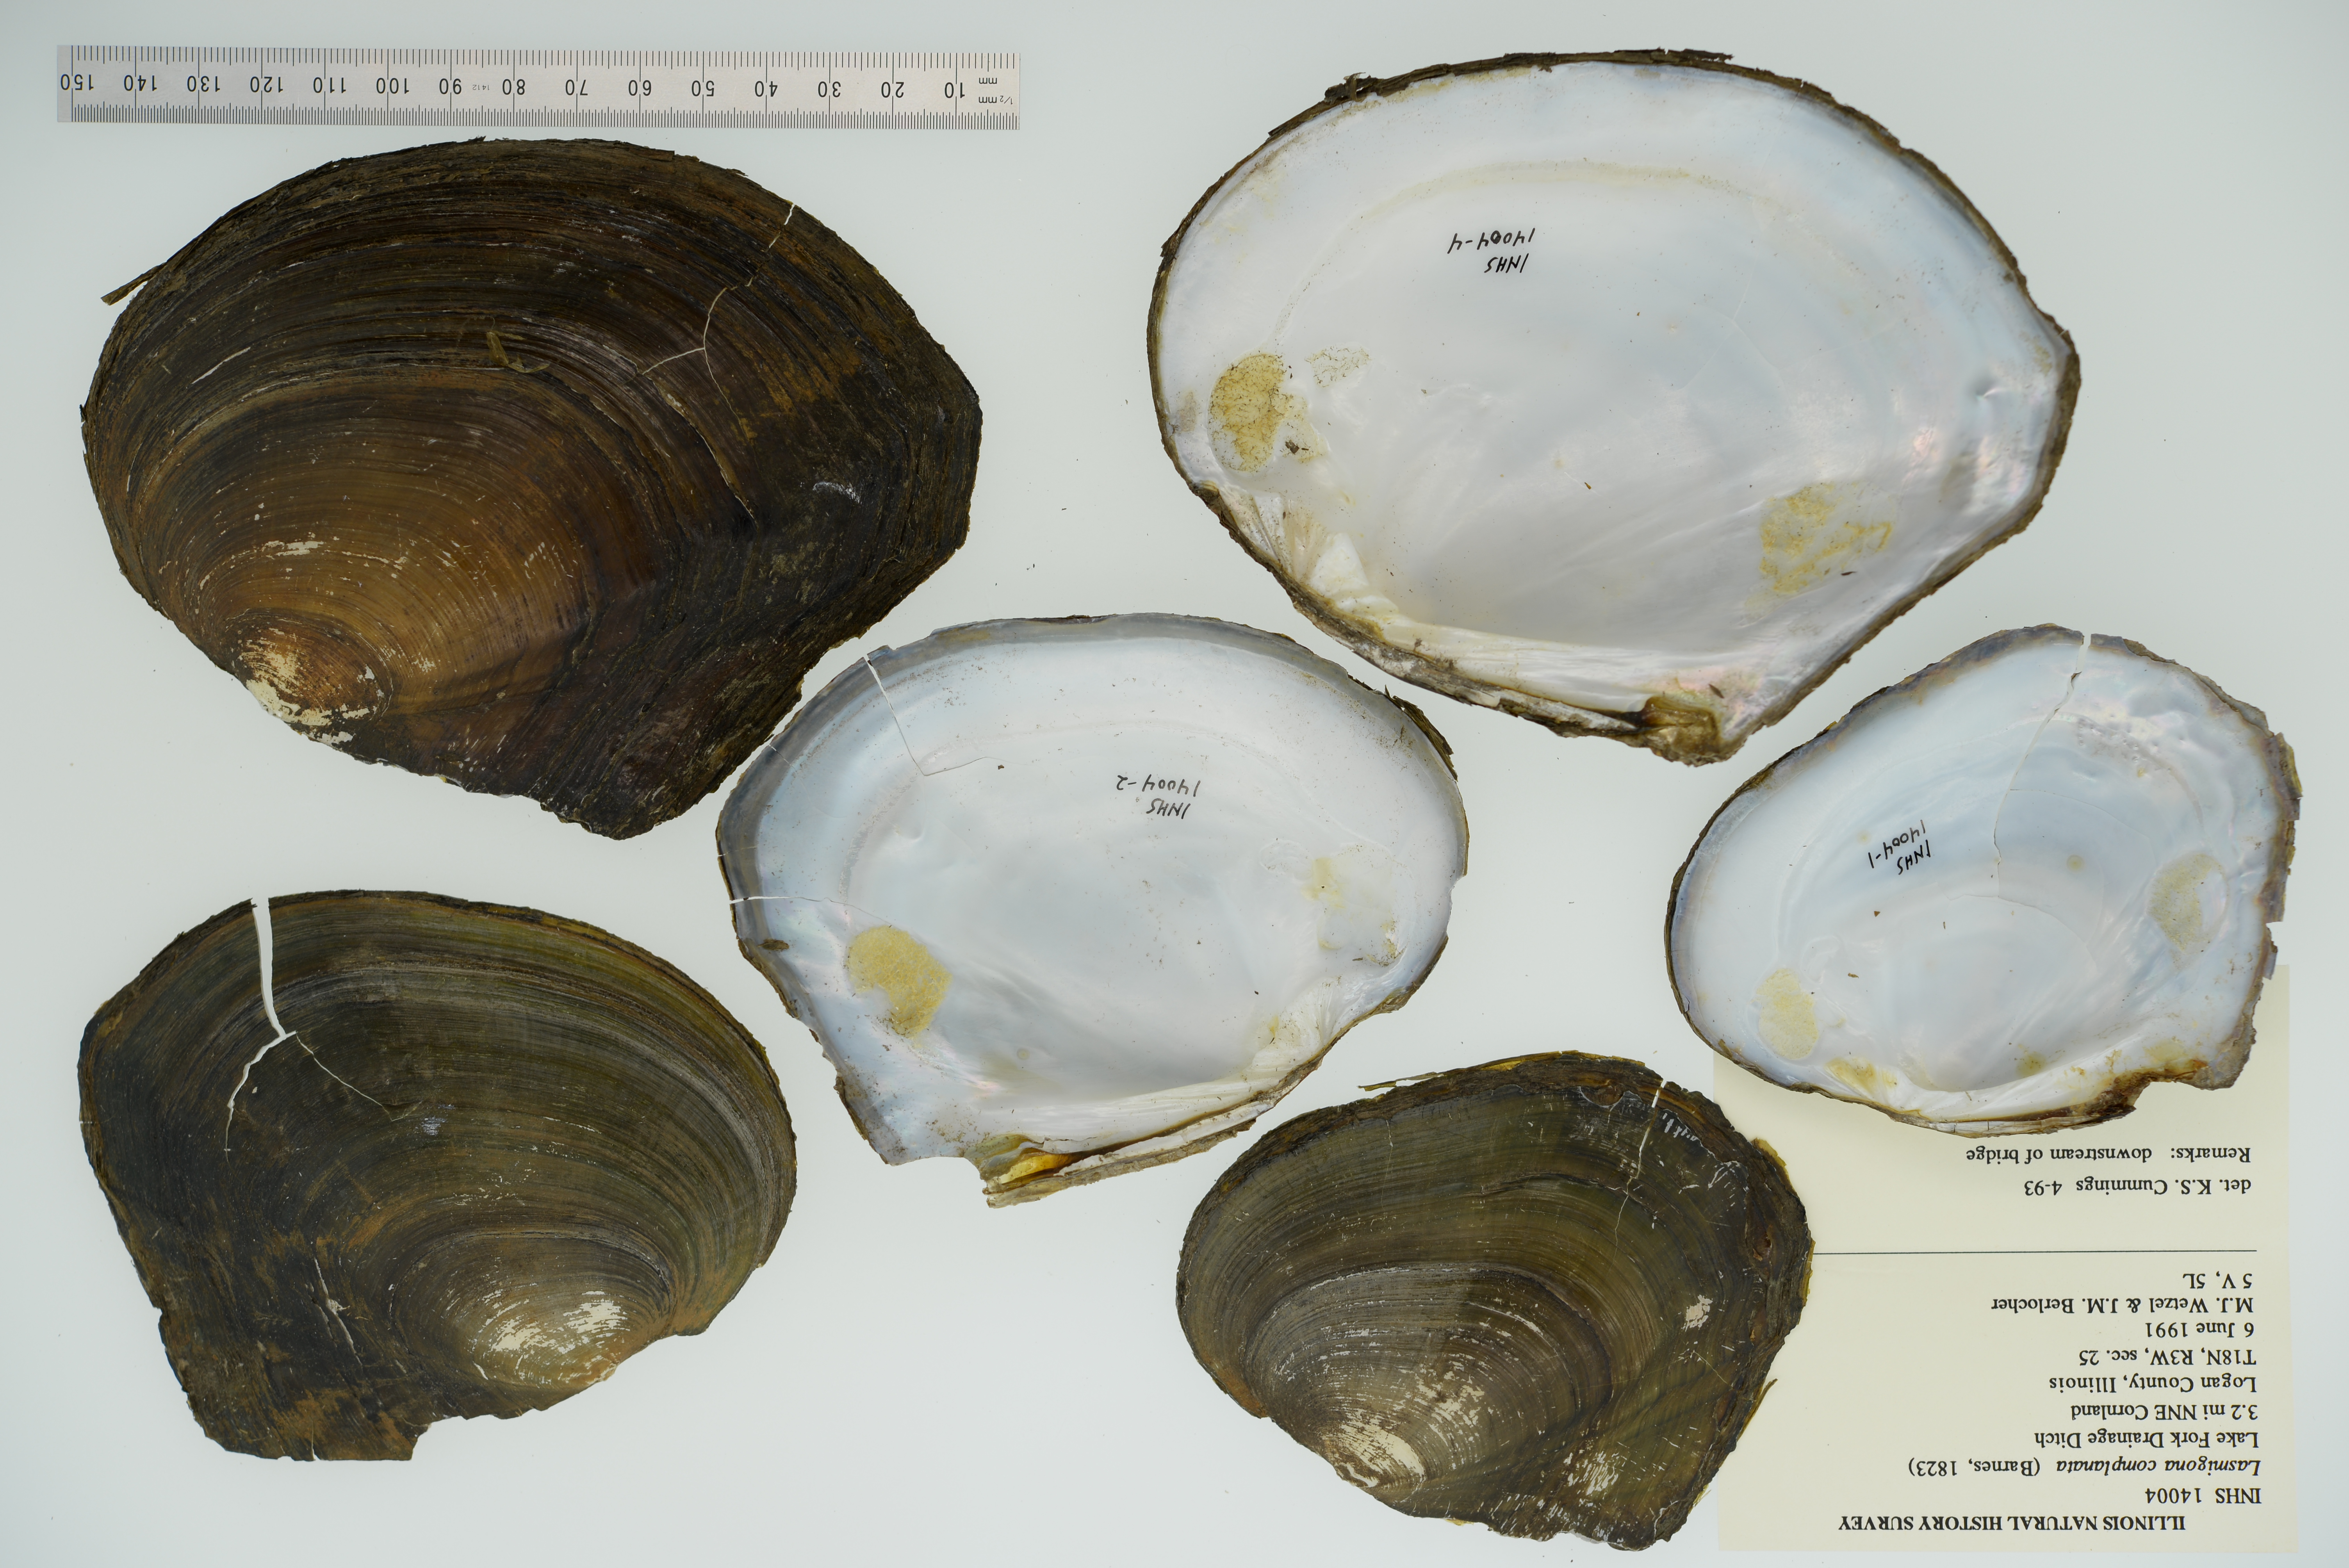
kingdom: Animalia
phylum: Mollusca
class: Bivalvia
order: Unionida
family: Unionidae
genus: Lasmigona
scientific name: Lasmigona complanata
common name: White heelsplitter
